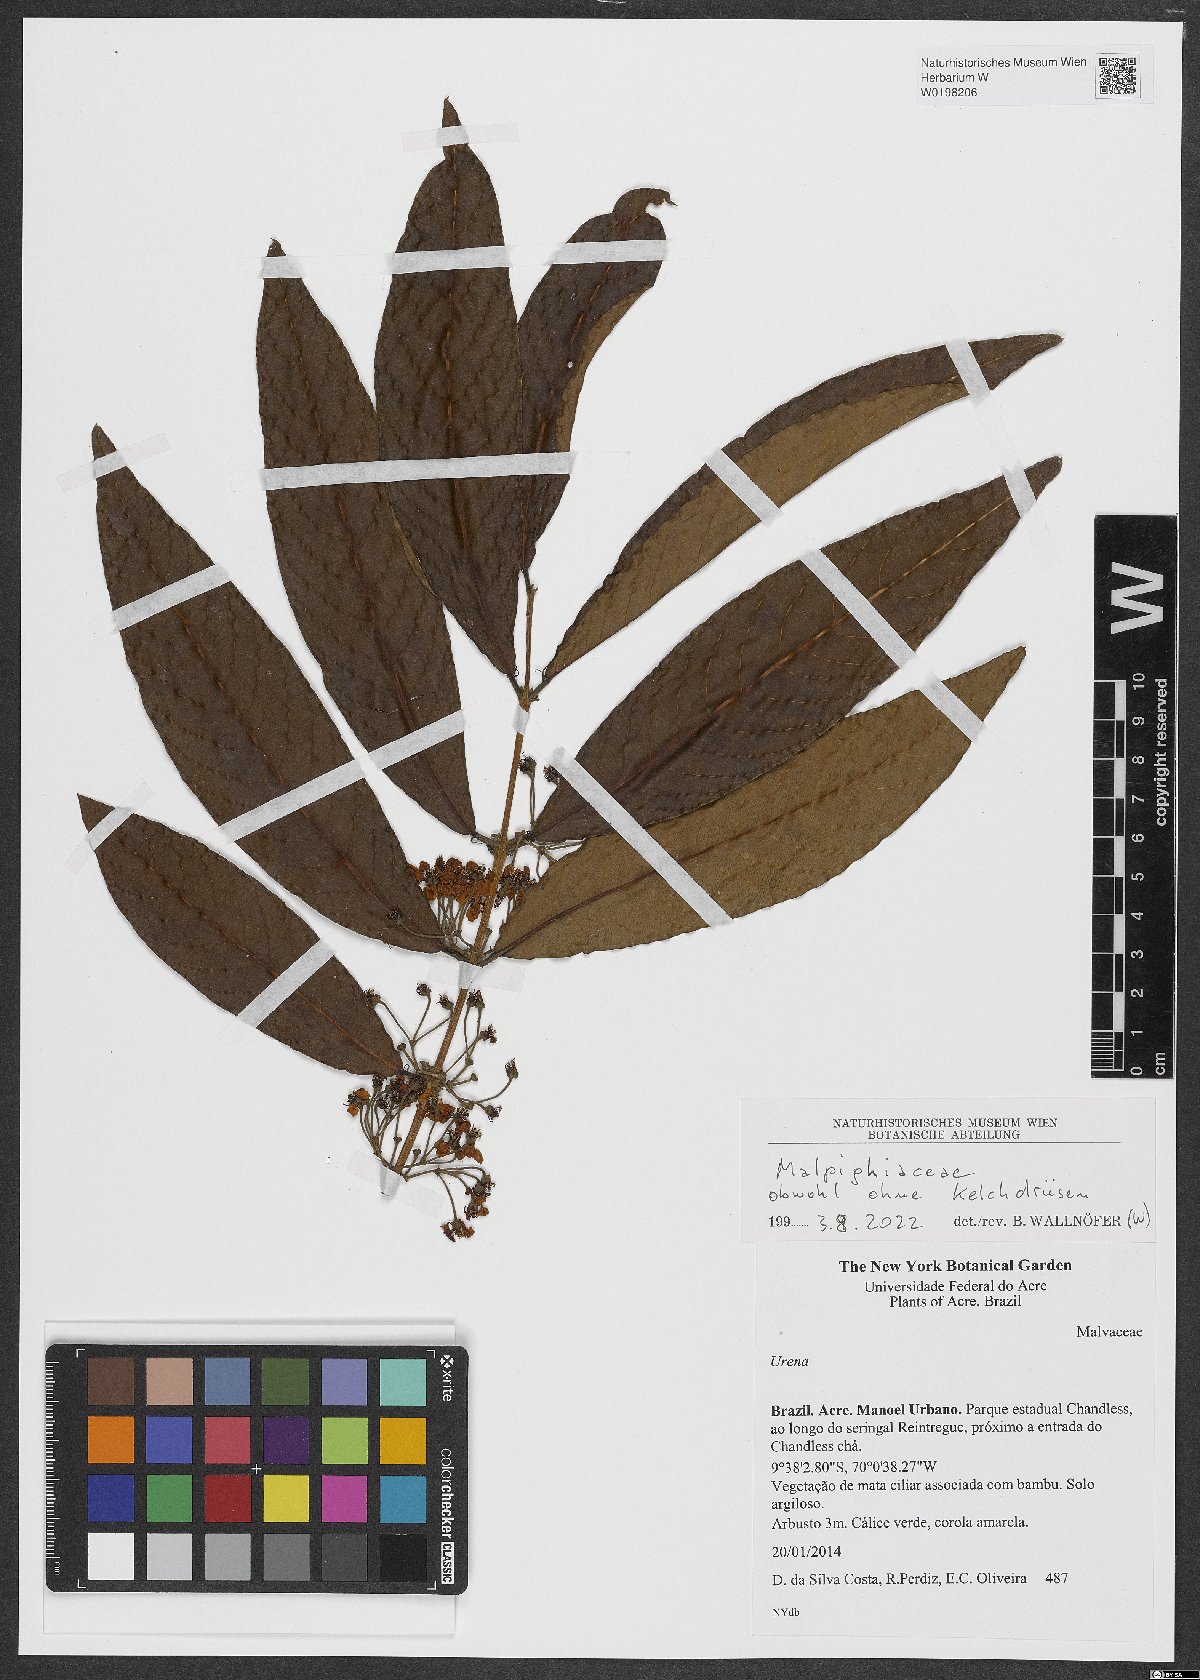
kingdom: Plantae
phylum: Tracheophyta
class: Magnoliopsida
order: Malpighiales
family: Malpighiaceae
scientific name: Malpighiaceae
